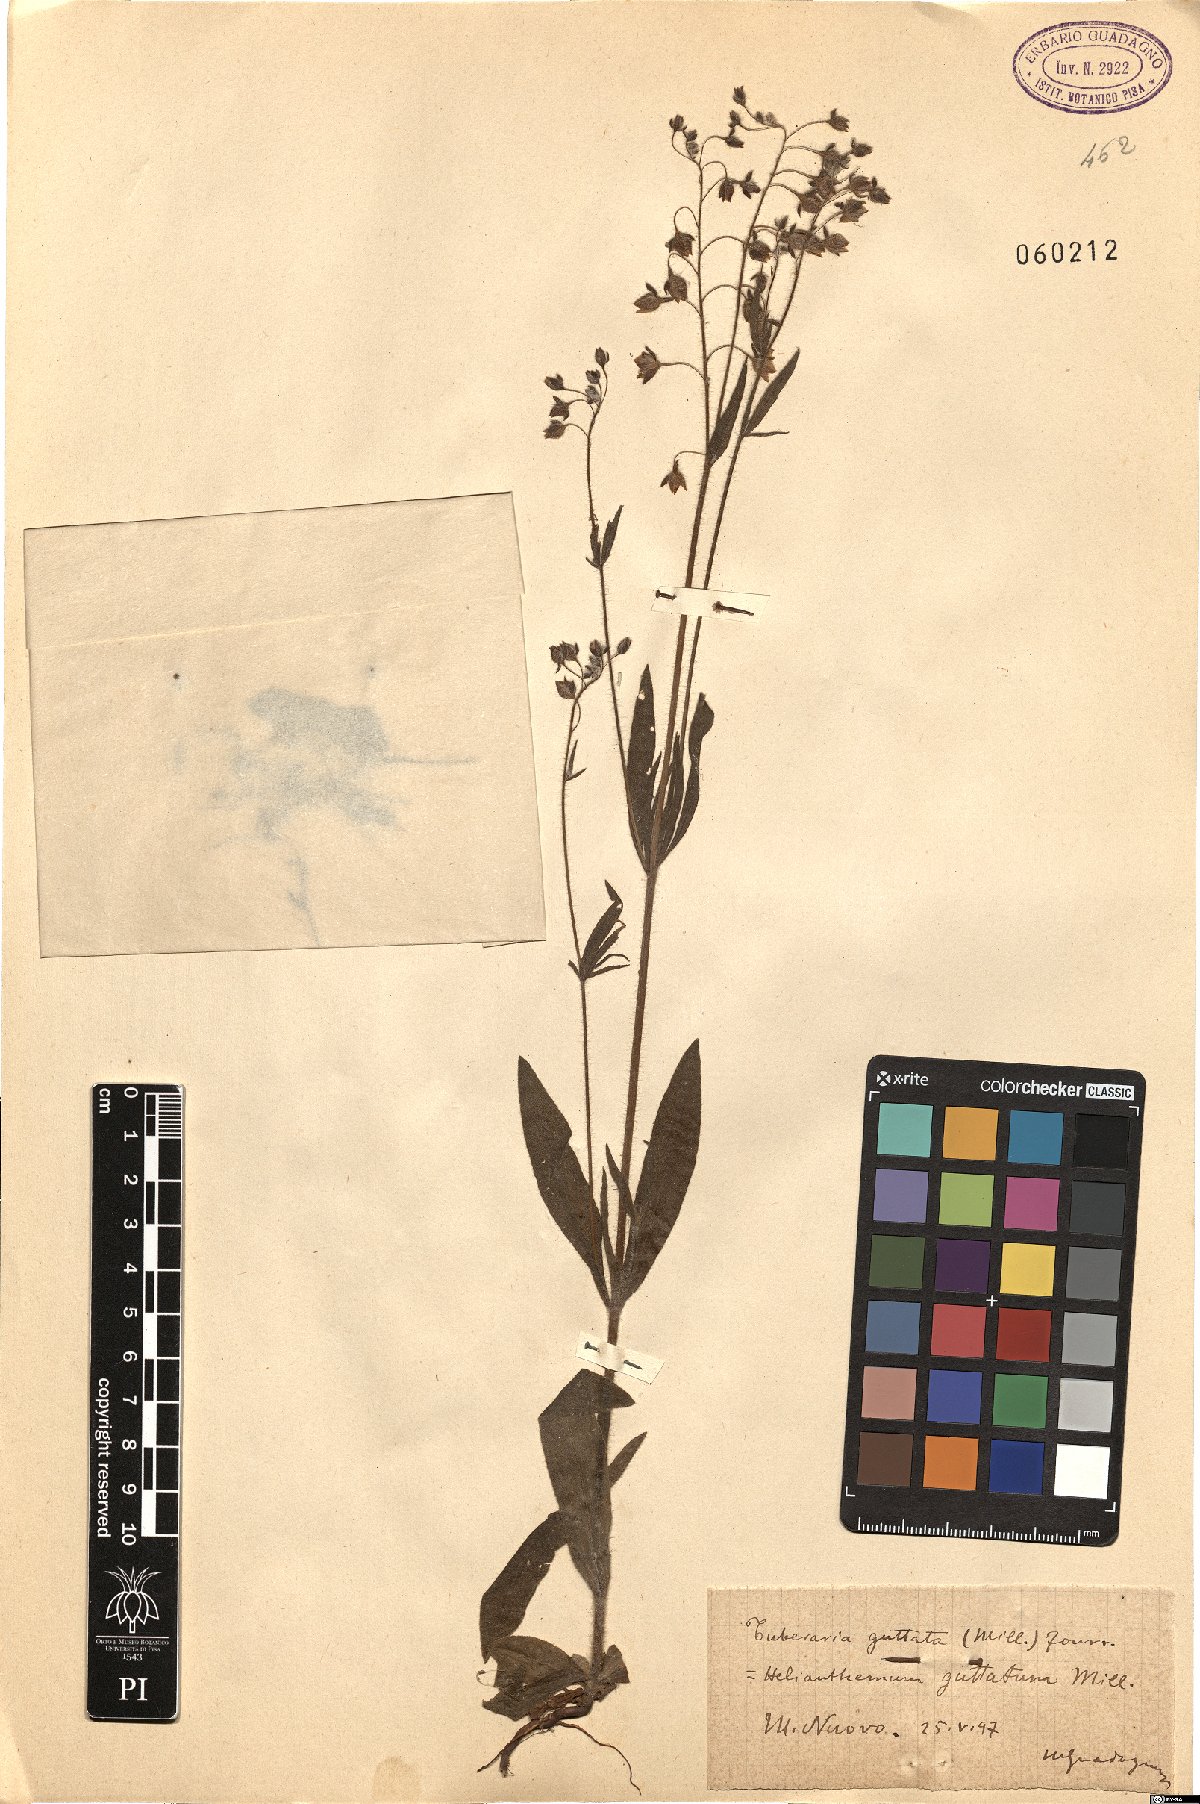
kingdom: Plantae
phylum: Tracheophyta
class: Magnoliopsida
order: Malvales
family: Cistaceae
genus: Tuberaria
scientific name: Tuberaria guttata
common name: Spotted rock-rose
